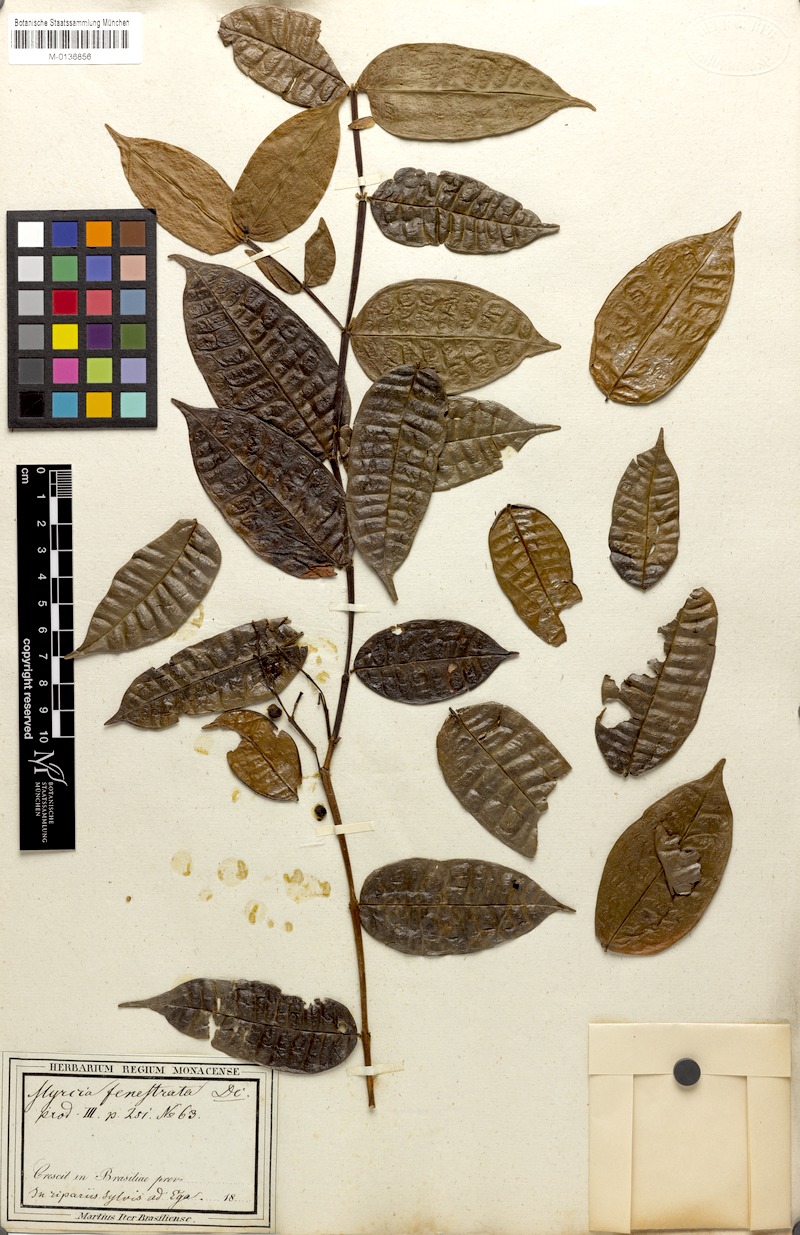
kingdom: Plantae
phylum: Tracheophyta
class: Magnoliopsida
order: Myrtales
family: Myrtaceae
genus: Myrcia
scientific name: Myrcia fenestrata
